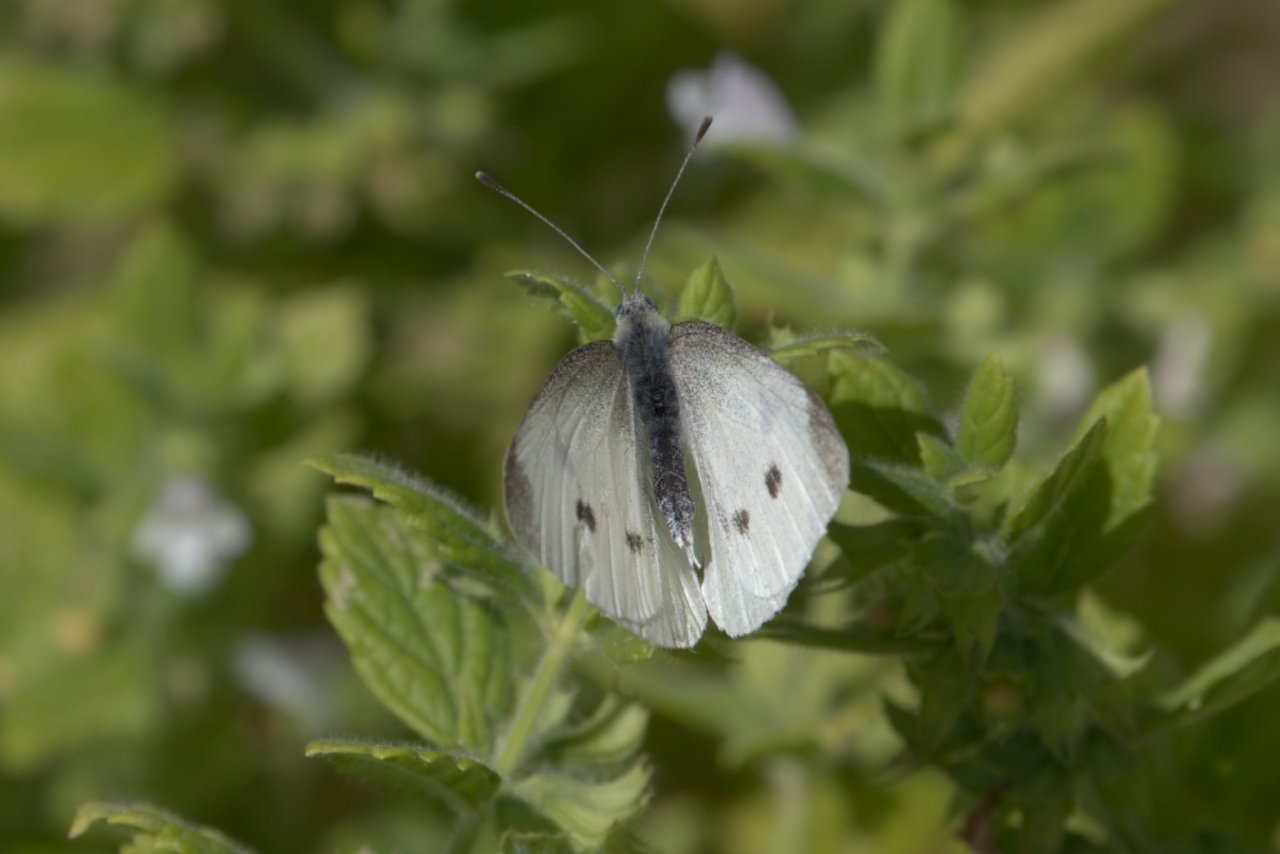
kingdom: Animalia
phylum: Arthropoda
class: Insecta
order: Lepidoptera
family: Pieridae
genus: Pieris
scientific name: Pieris rapae
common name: Cabbage White
